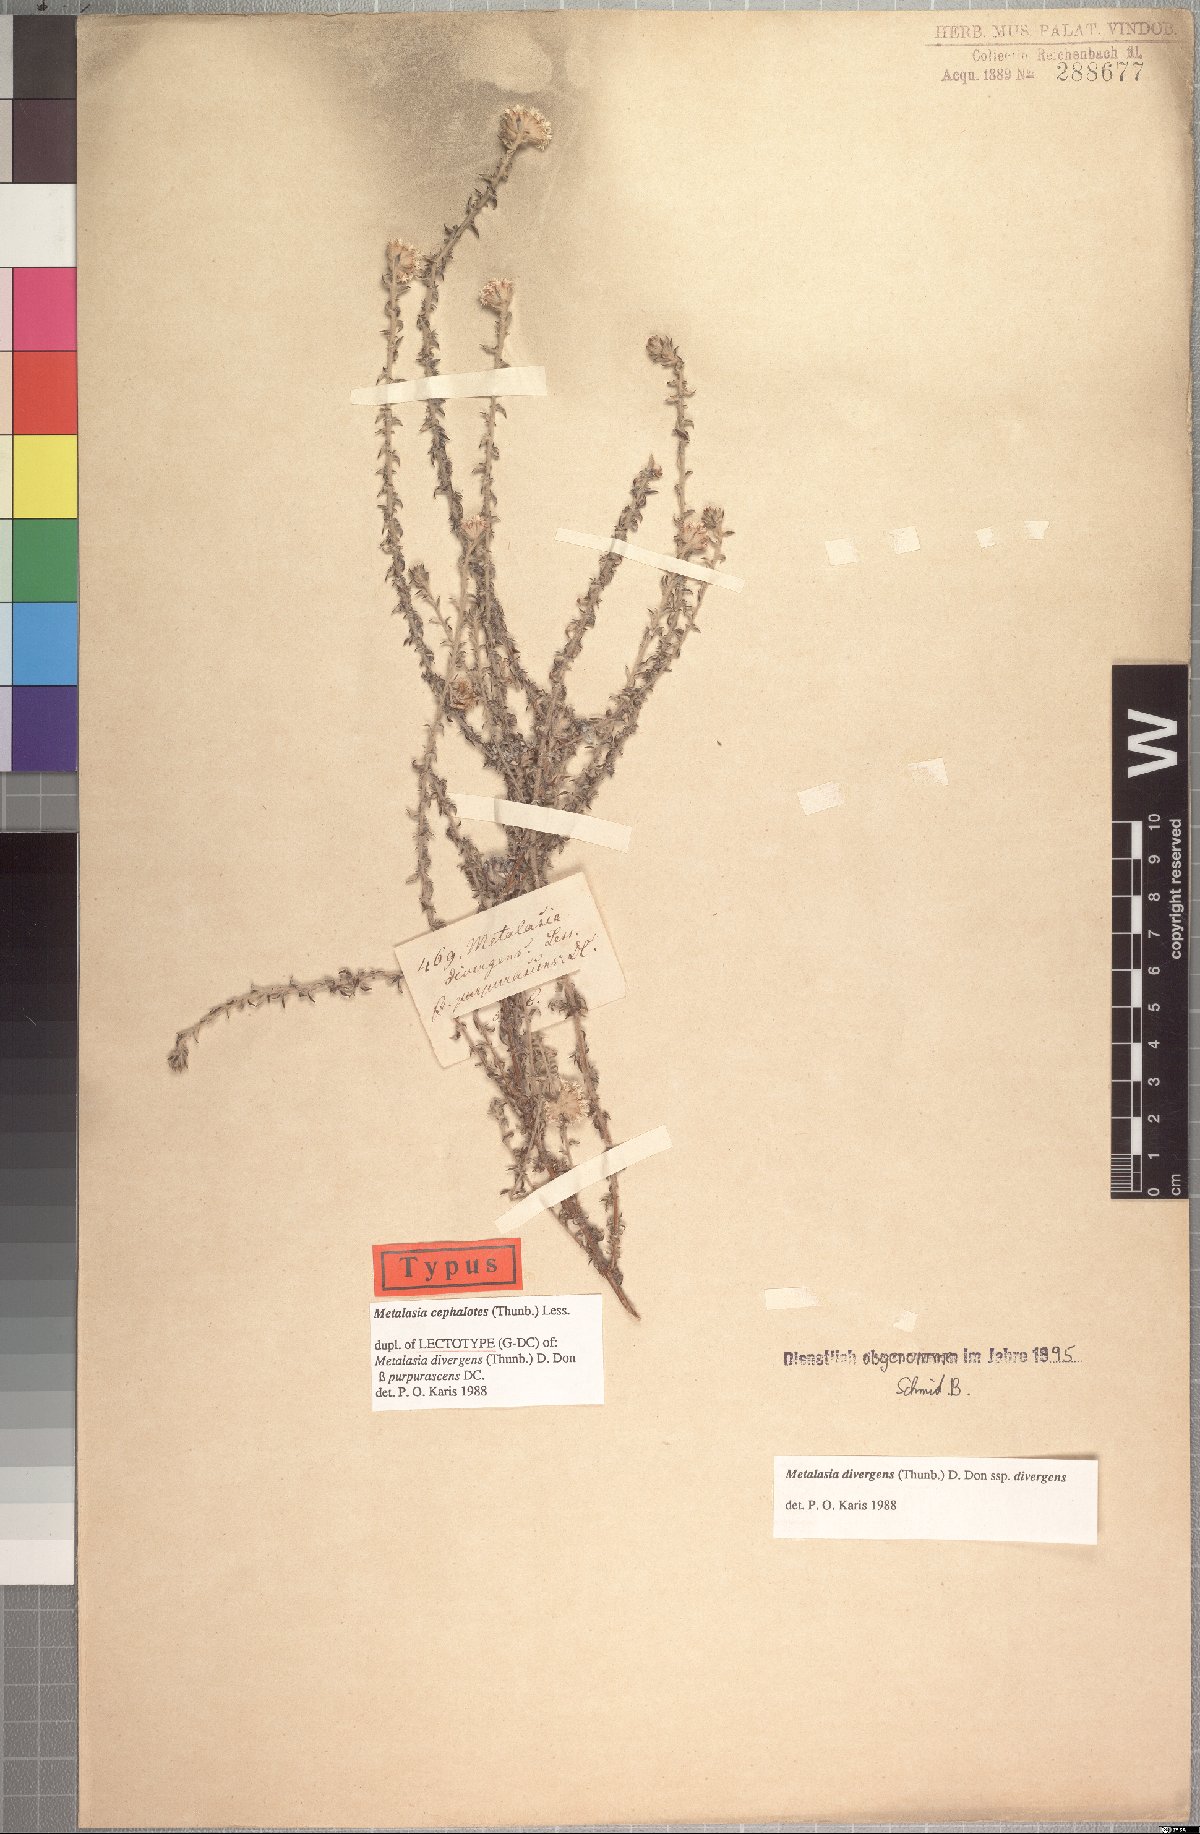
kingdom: Plantae
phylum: Tracheophyta
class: Magnoliopsida
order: Asterales
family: Asteraceae
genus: Metalasia
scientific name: Metalasia cephalotes
